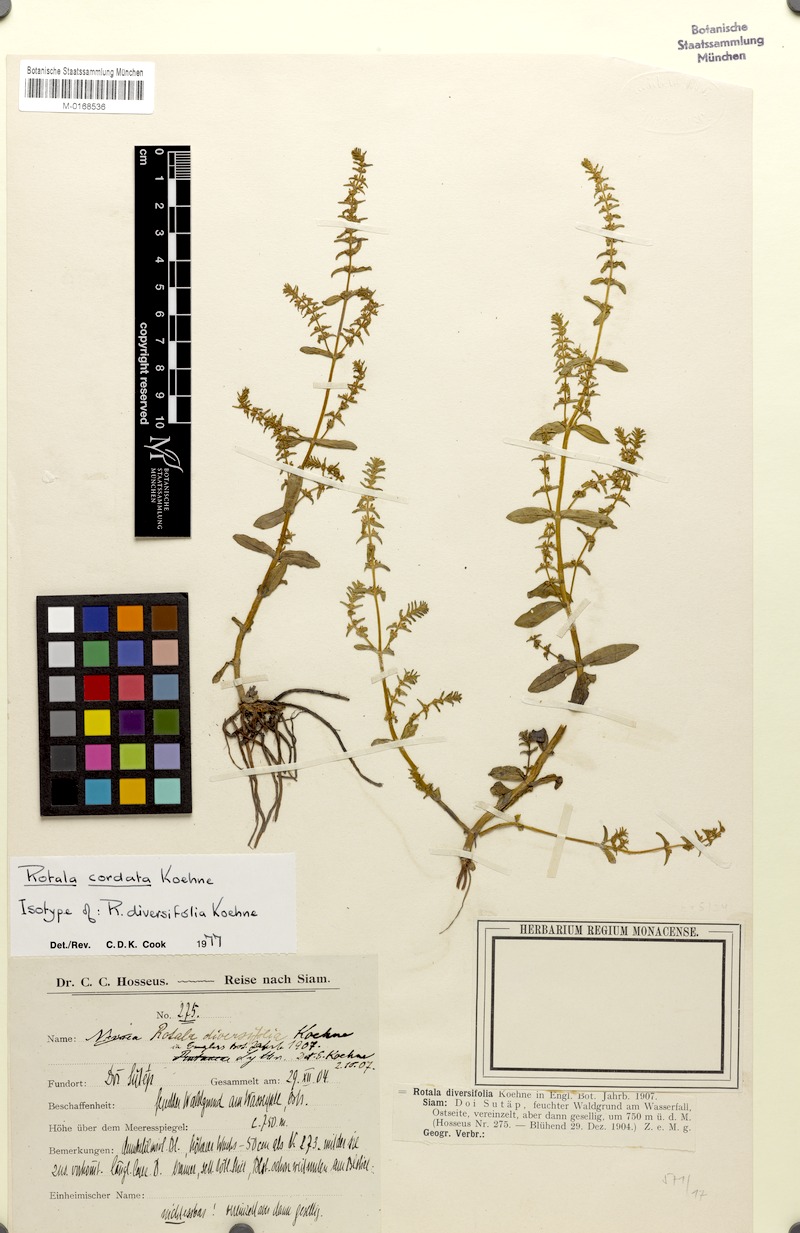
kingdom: Plantae
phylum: Tracheophyta
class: Magnoliopsida
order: Myrtales
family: Lythraceae
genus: Rotala
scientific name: Rotala cordata
